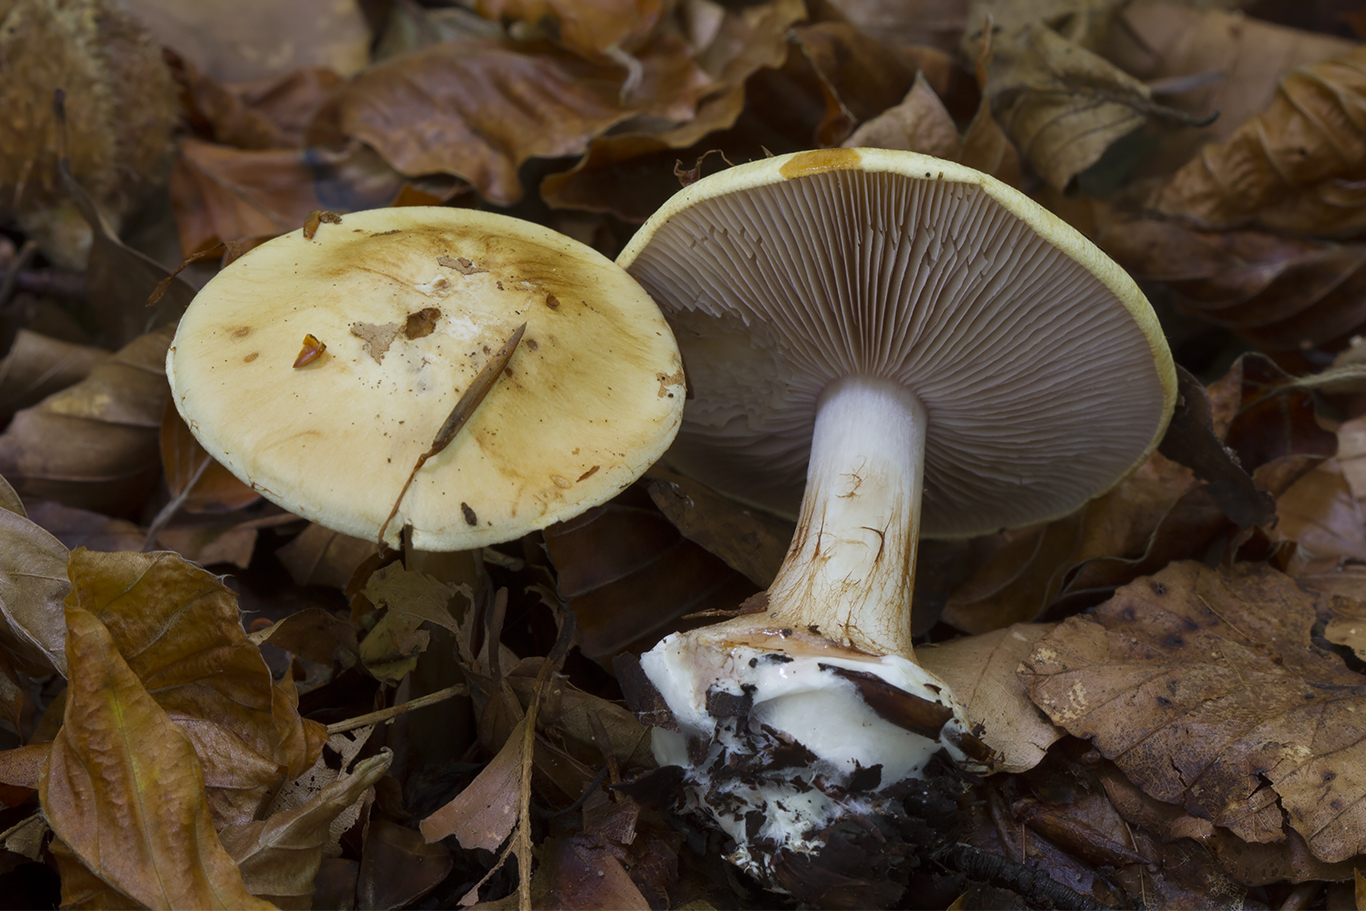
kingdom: Fungi
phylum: Basidiomycota
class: Agaricomycetes
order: Agaricales
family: Cortinariaceae
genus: Calonarius
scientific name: Calonarius platypus
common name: platfodet slørhat
